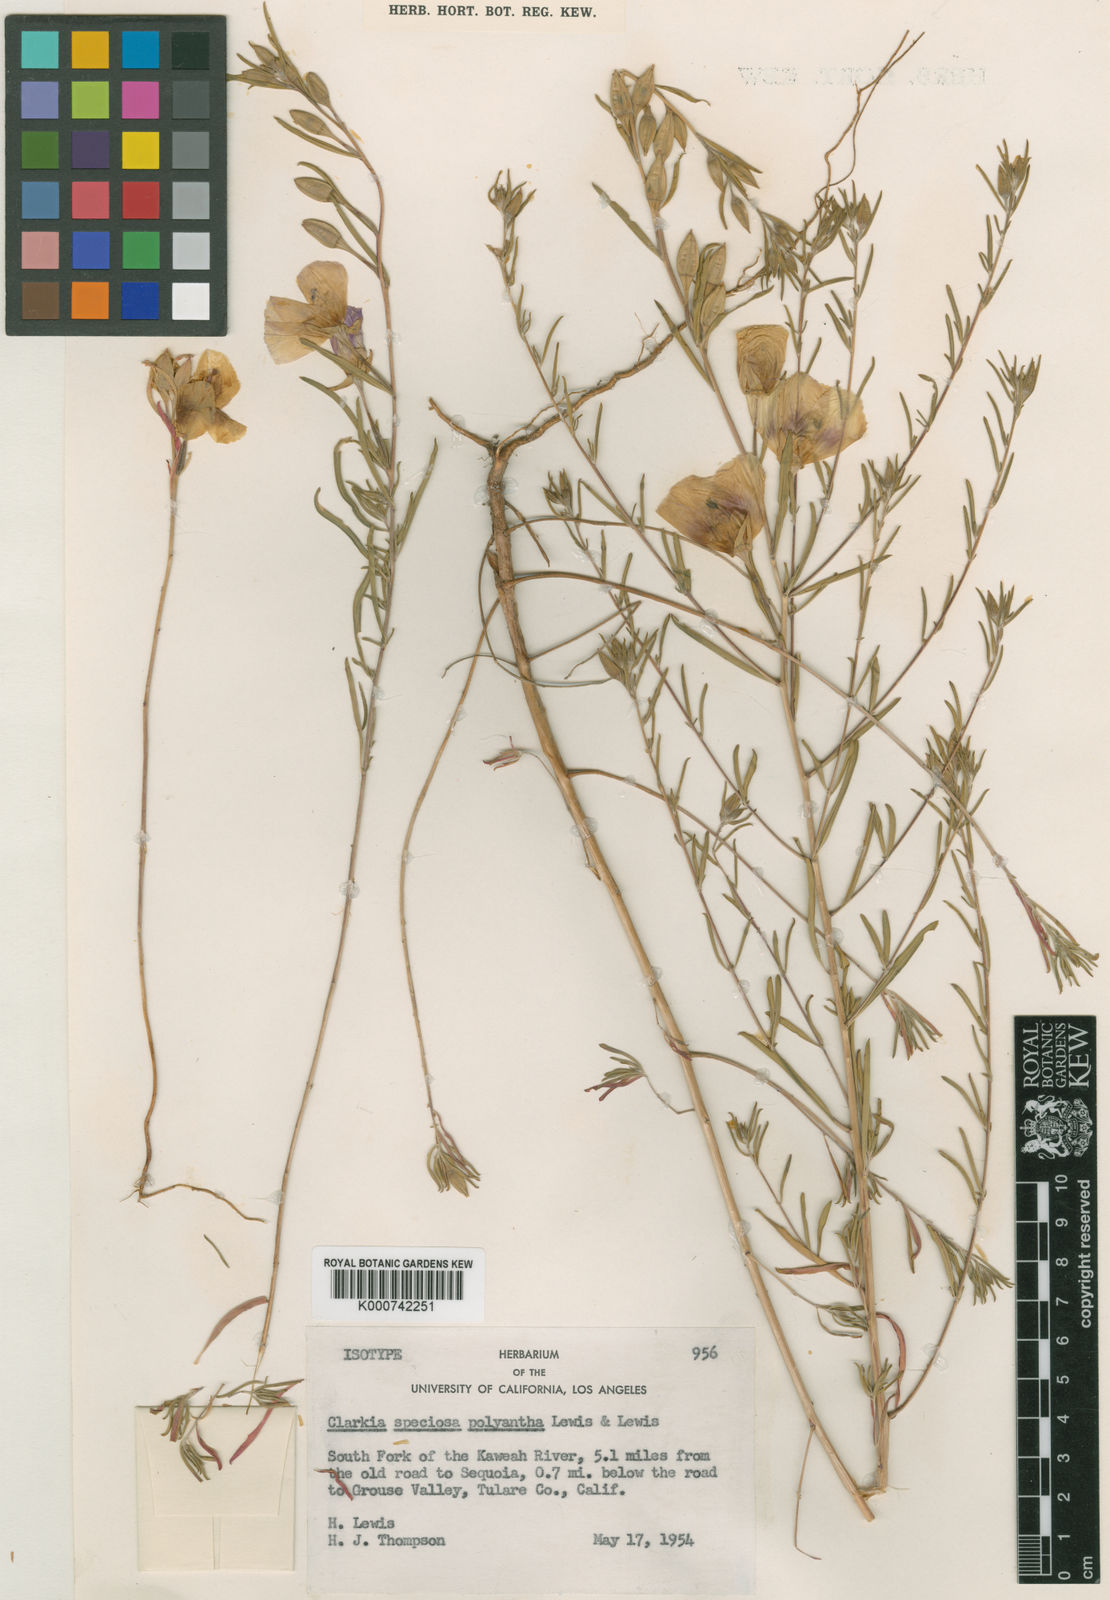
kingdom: Plantae
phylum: Tracheophyta
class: Magnoliopsida
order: Myrtales
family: Onagraceae
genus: Clarkia
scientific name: Clarkia speciosa
